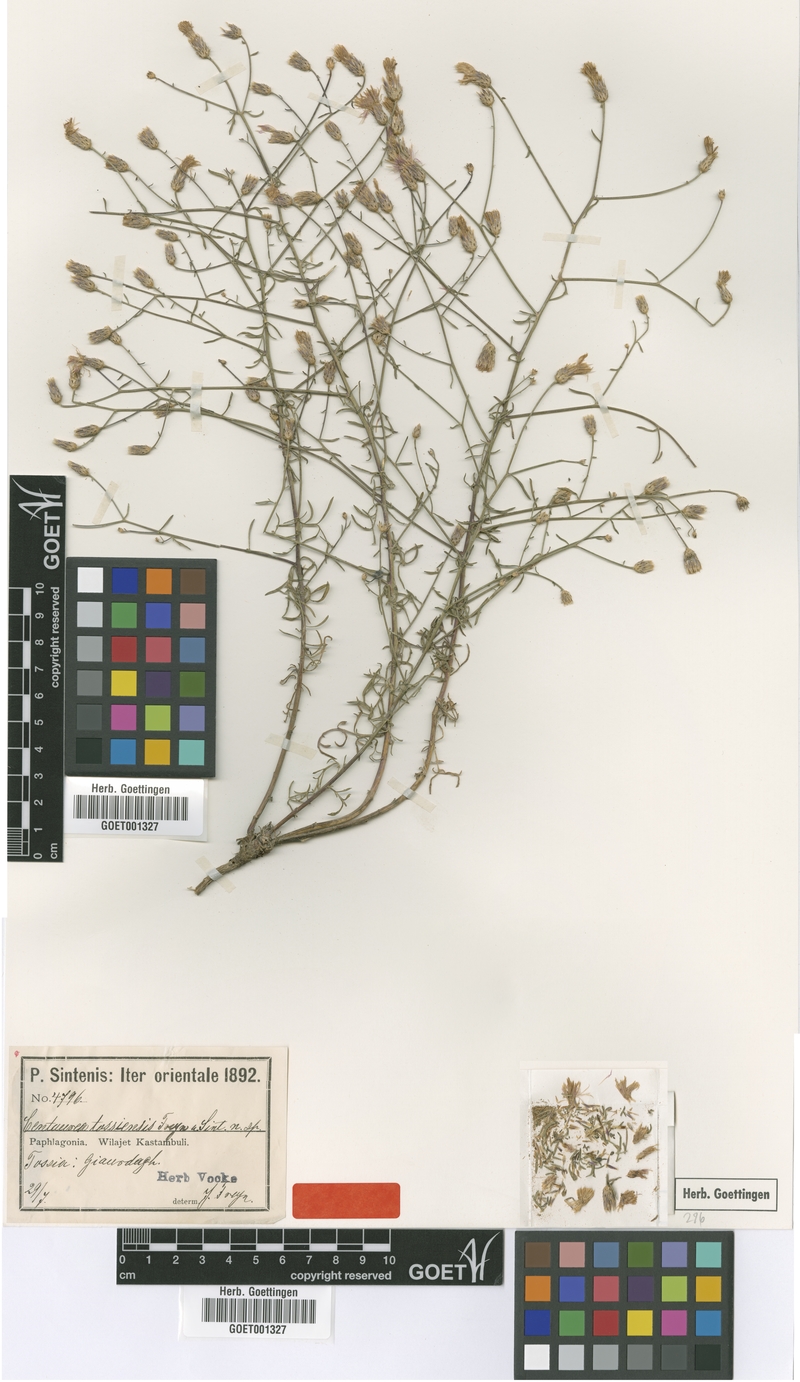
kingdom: Plantae
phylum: Tracheophyta
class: Magnoliopsida
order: Asterales
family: Asteraceae
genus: Centaurea
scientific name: Centaurea tossiensis
